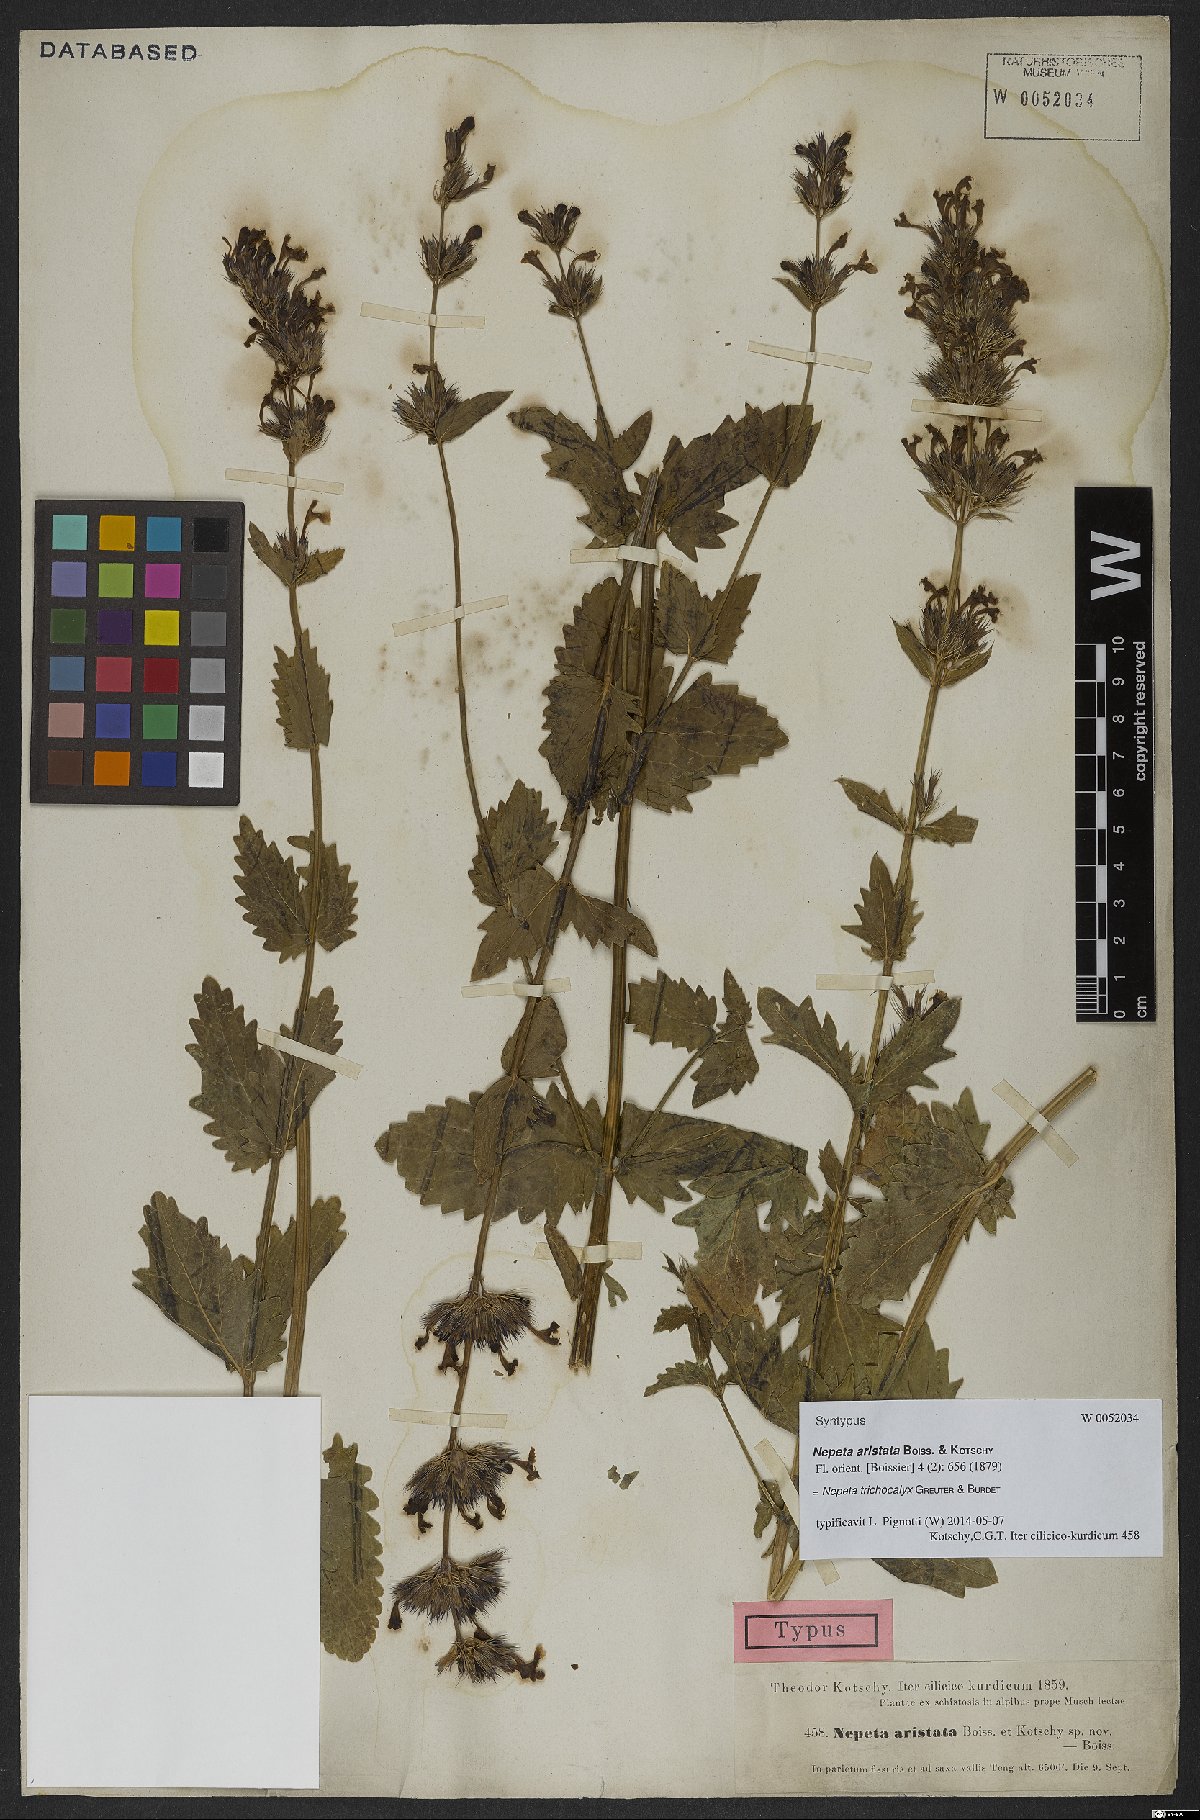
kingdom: Plantae
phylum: Tracheophyta
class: Magnoliopsida
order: Lamiales
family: Lamiaceae
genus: Nepeta
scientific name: Nepeta trichocalyx
